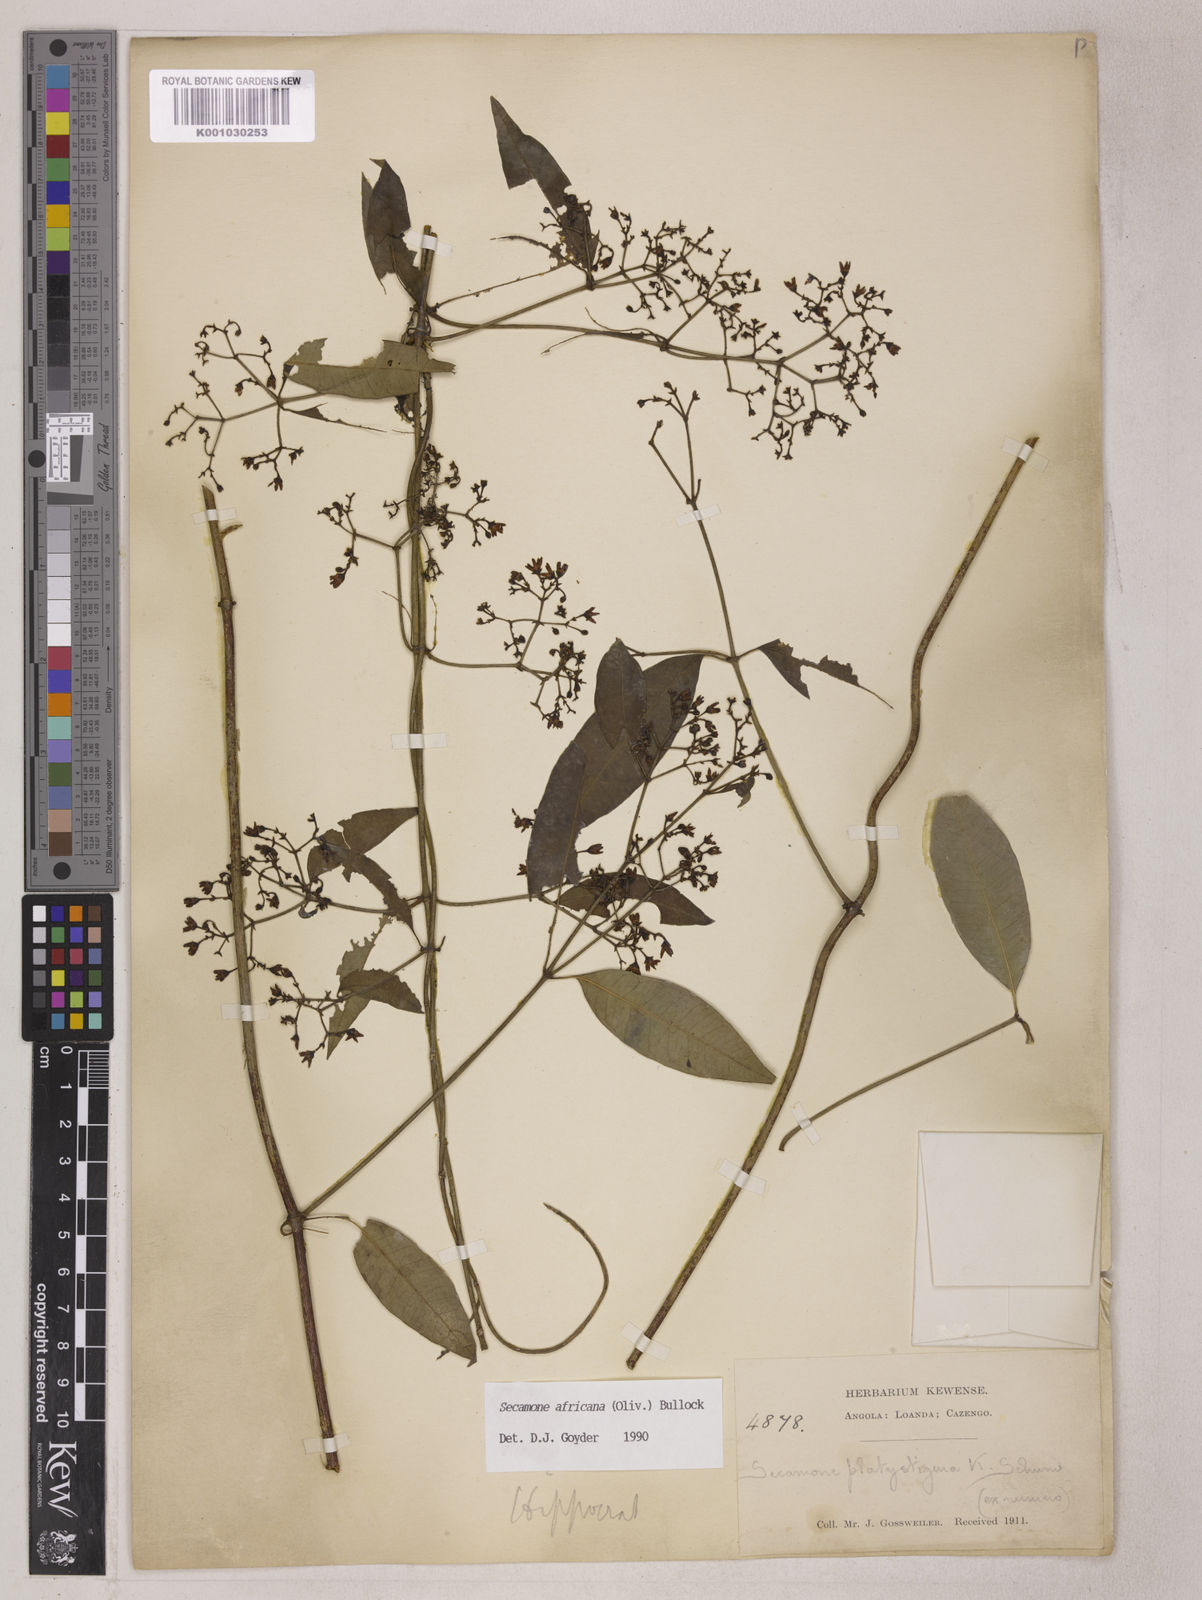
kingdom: Plantae
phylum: Tracheophyta
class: Magnoliopsida
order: Gentianales
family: Apocynaceae
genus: Secamone
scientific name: Secamone africana
